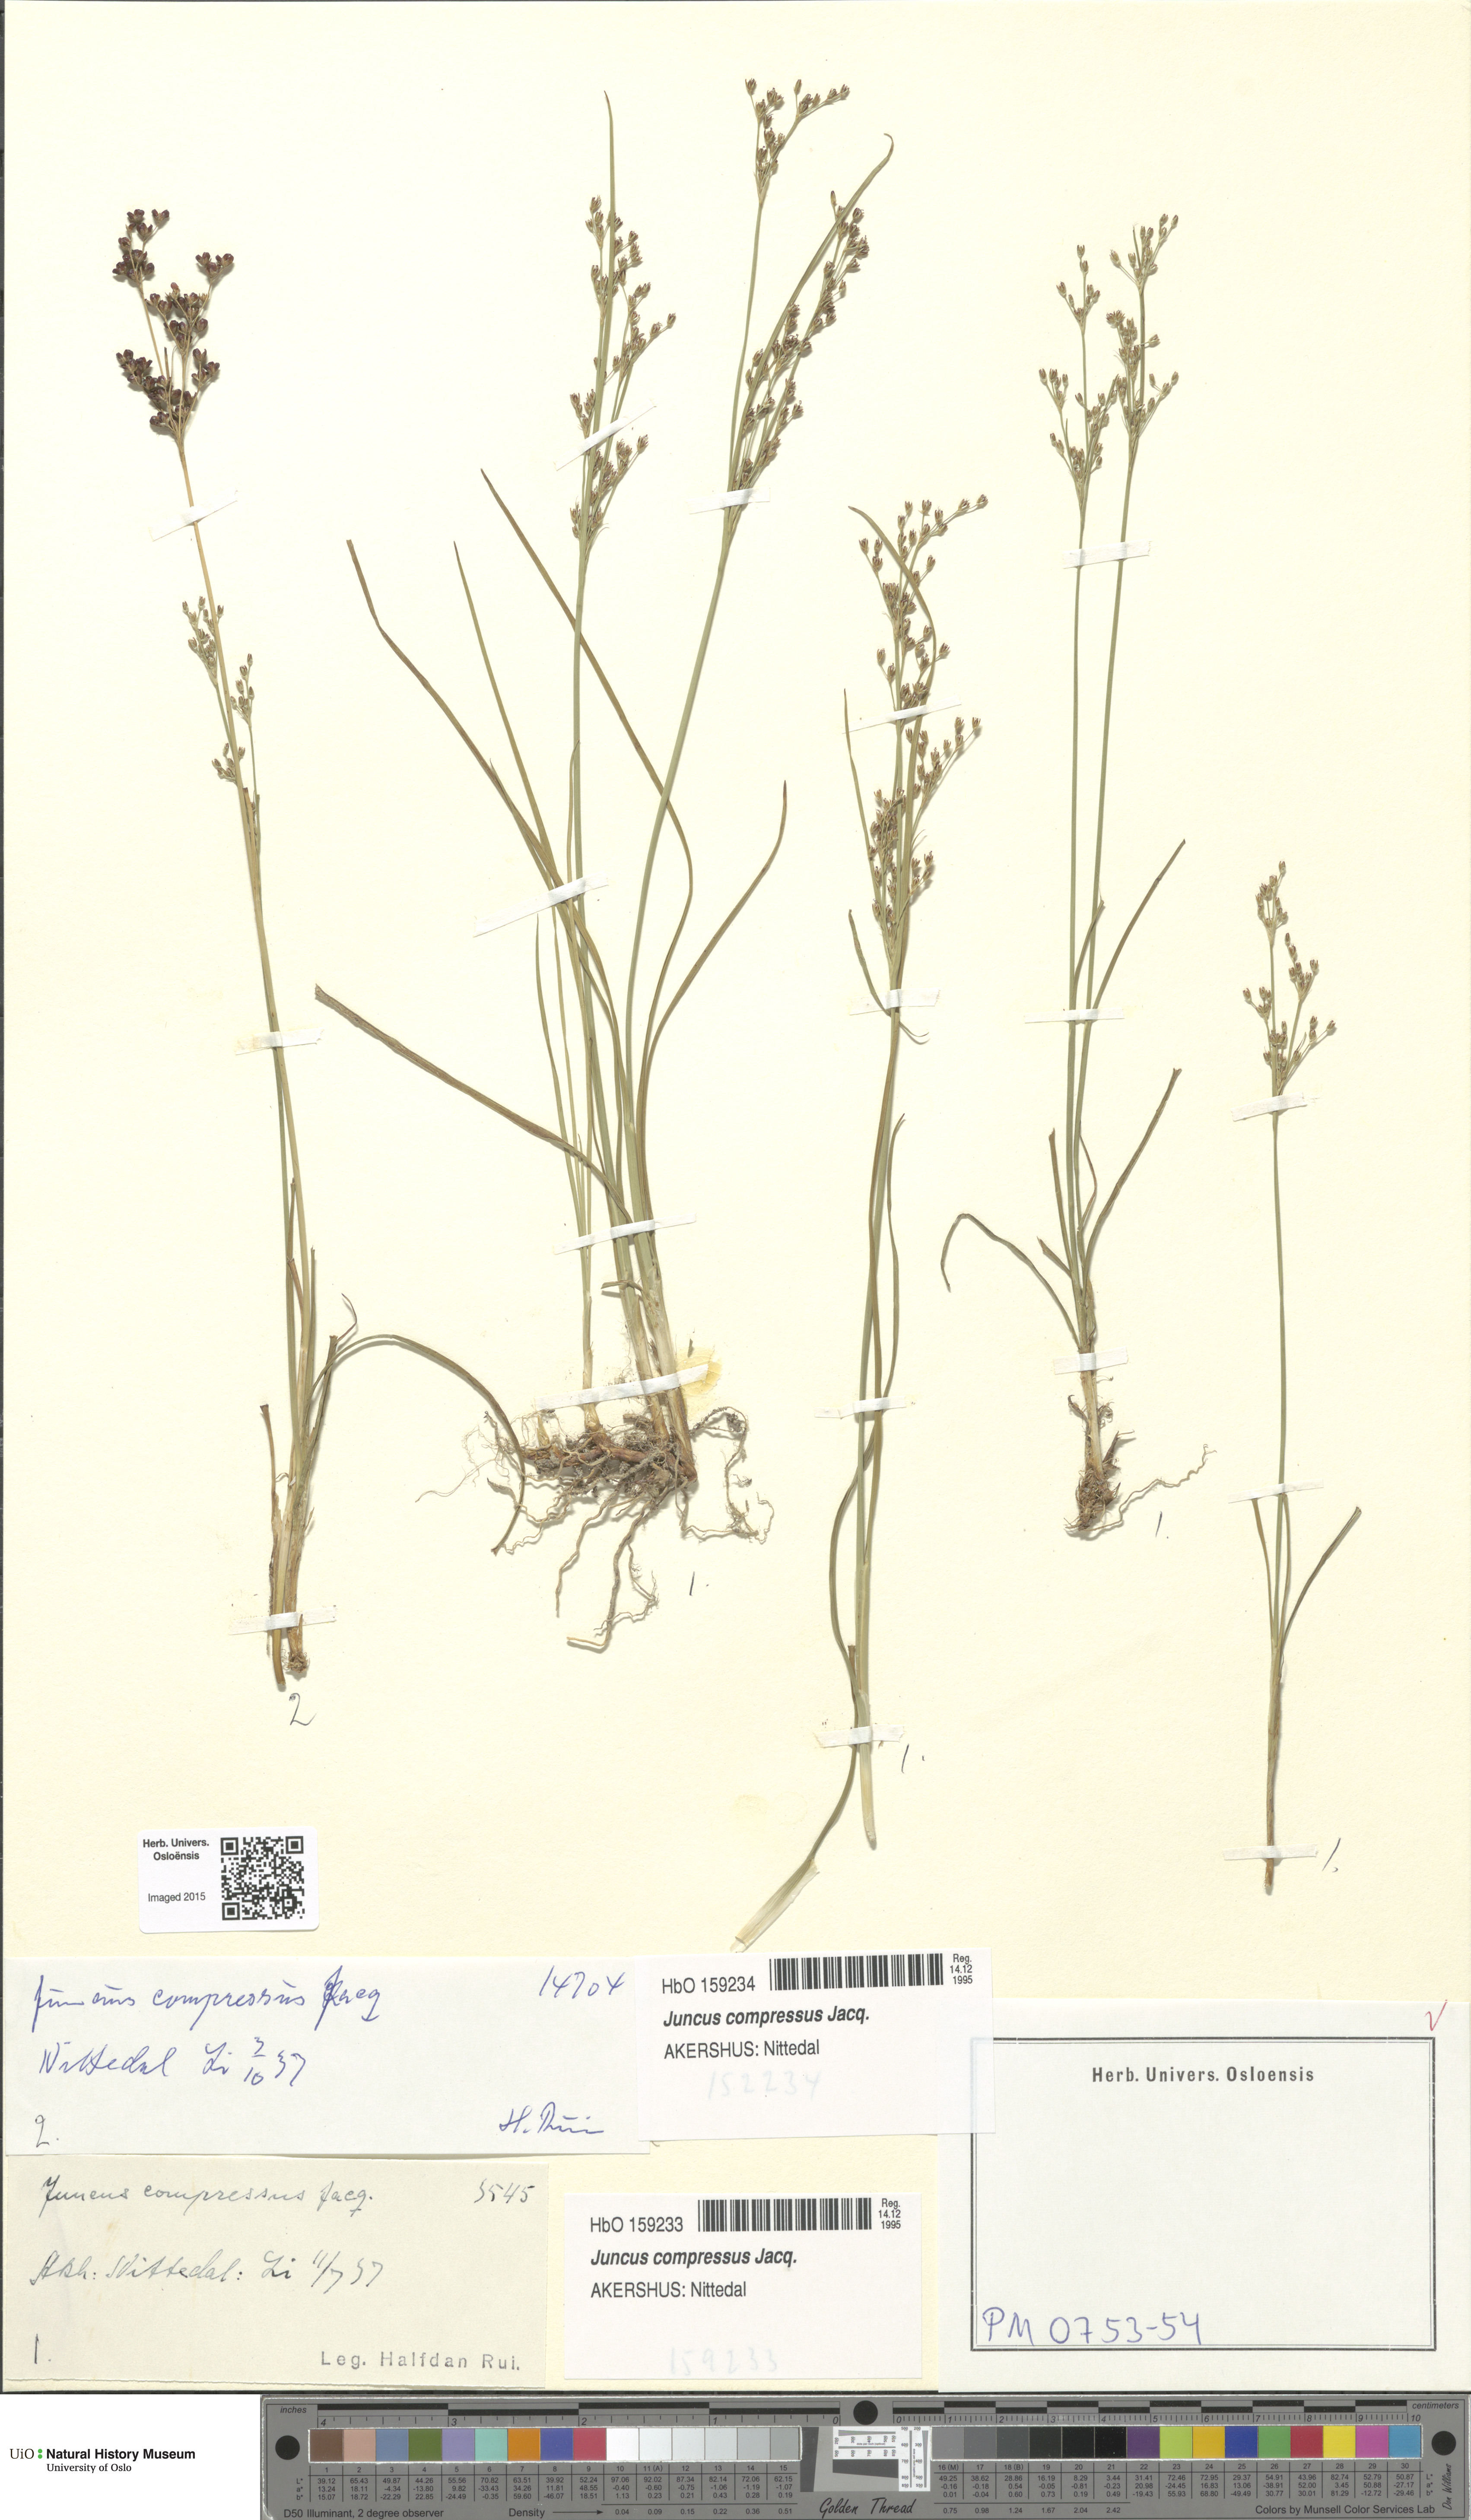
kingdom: Plantae
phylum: Tracheophyta
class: Liliopsida
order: Poales
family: Juncaceae
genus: Juncus
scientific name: Juncus compressus
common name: Round-fruited rush
